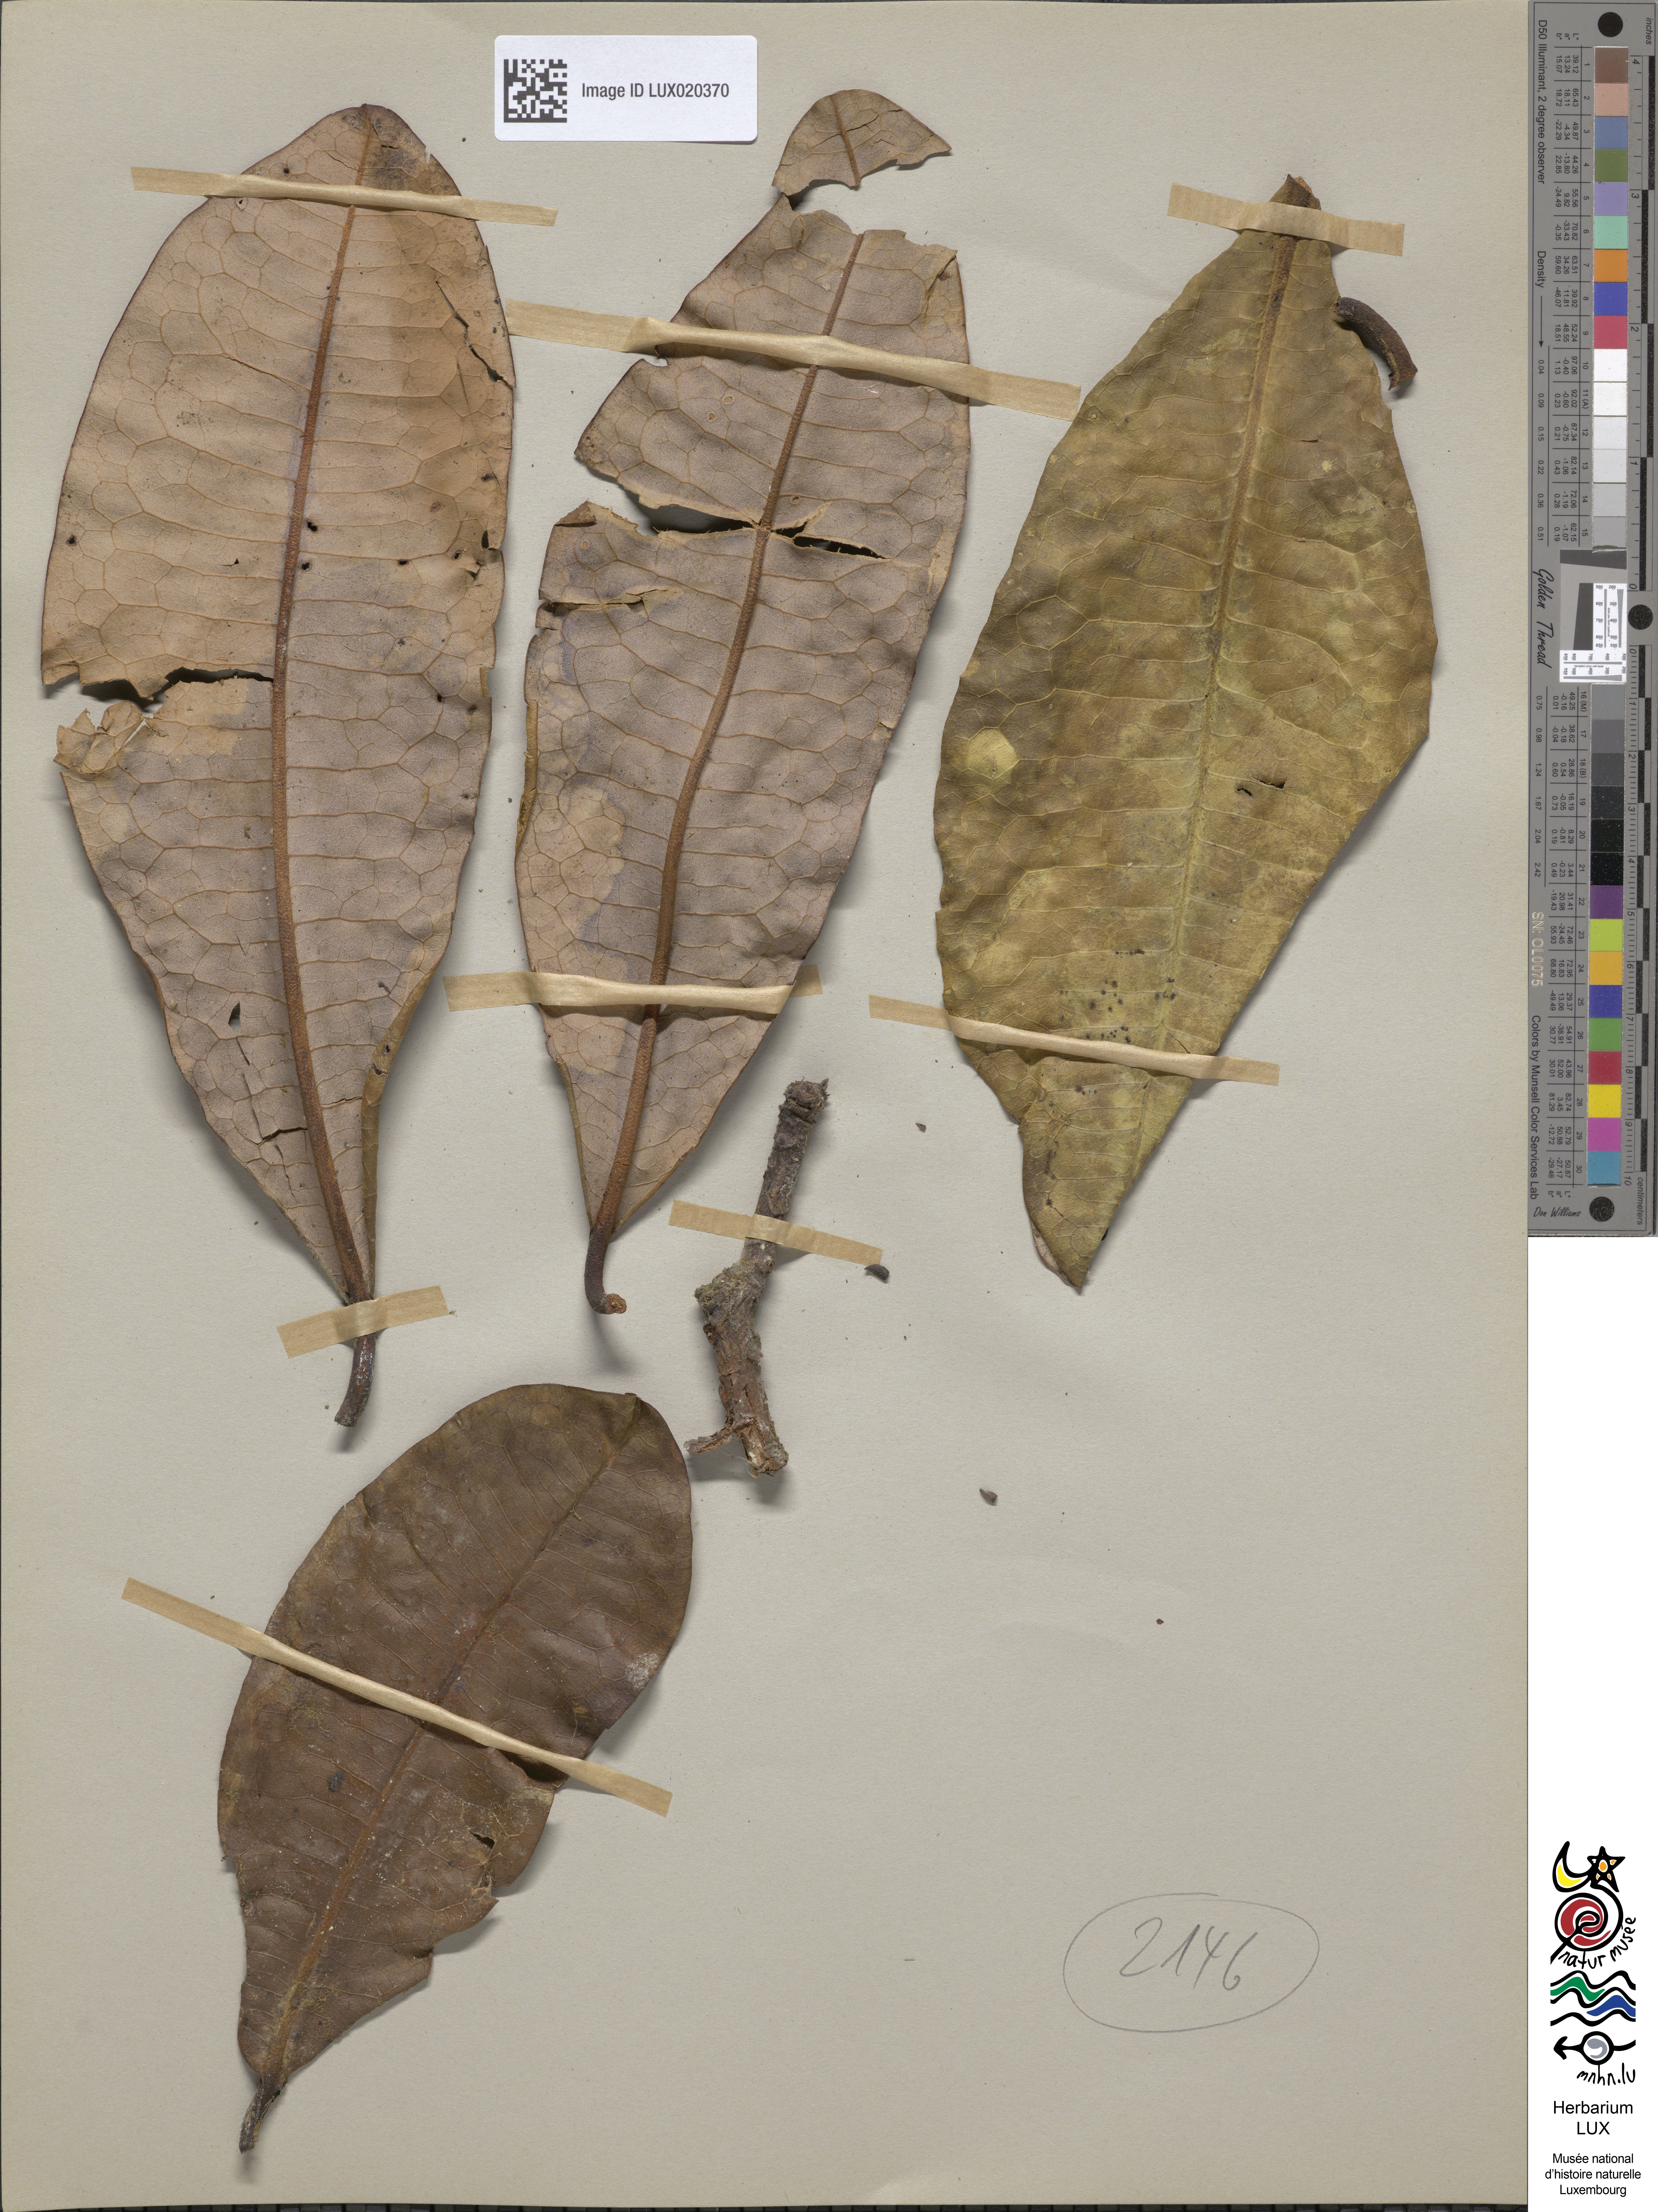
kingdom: Plantae
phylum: Tracheophyta
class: Magnoliopsida
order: Canellales
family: Winteraceae
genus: Zygogynum
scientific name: Zygogynum calothyrsum
